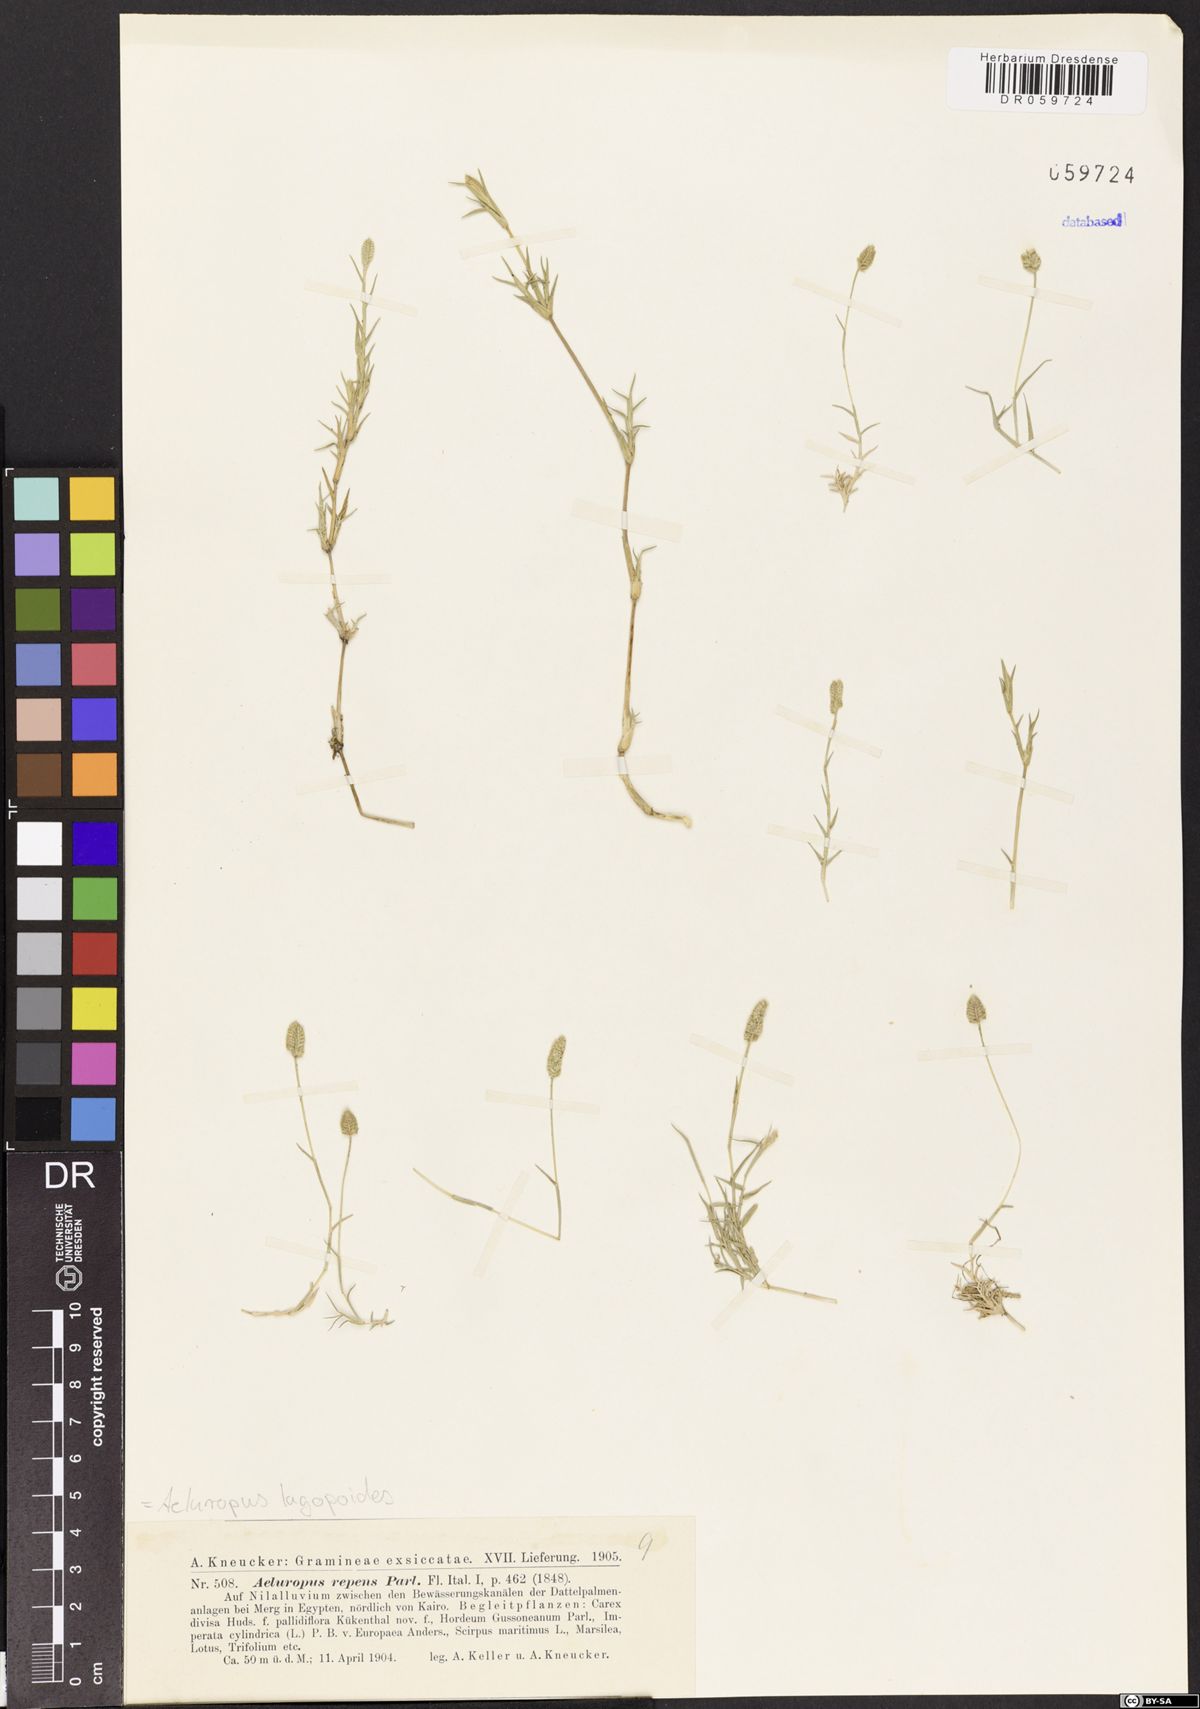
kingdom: Plantae
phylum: Tracheophyta
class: Liliopsida
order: Poales
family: Poaceae
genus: Aeluropus
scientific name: Aeluropus lagopoides
